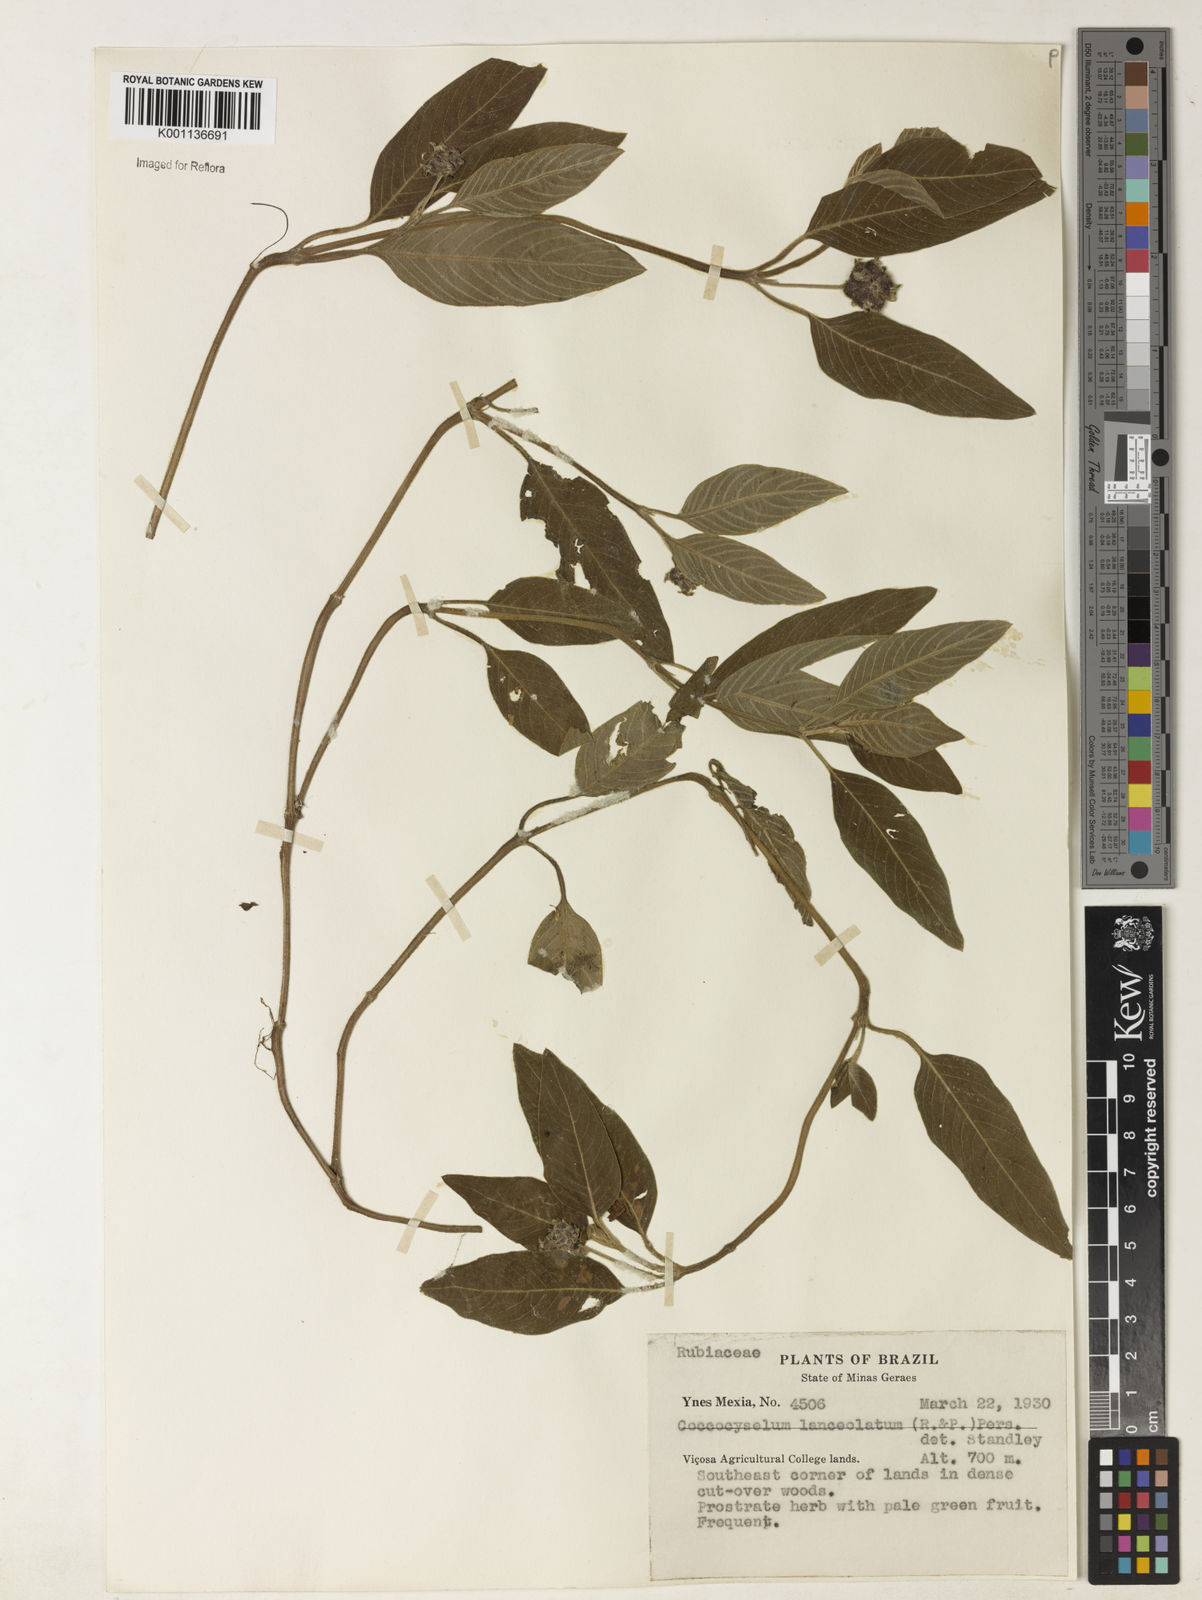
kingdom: Plantae
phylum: Tracheophyta
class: Magnoliopsida
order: Gentianales
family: Rubiaceae
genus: Coccocypselum
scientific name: Coccocypselum lanceolatum
